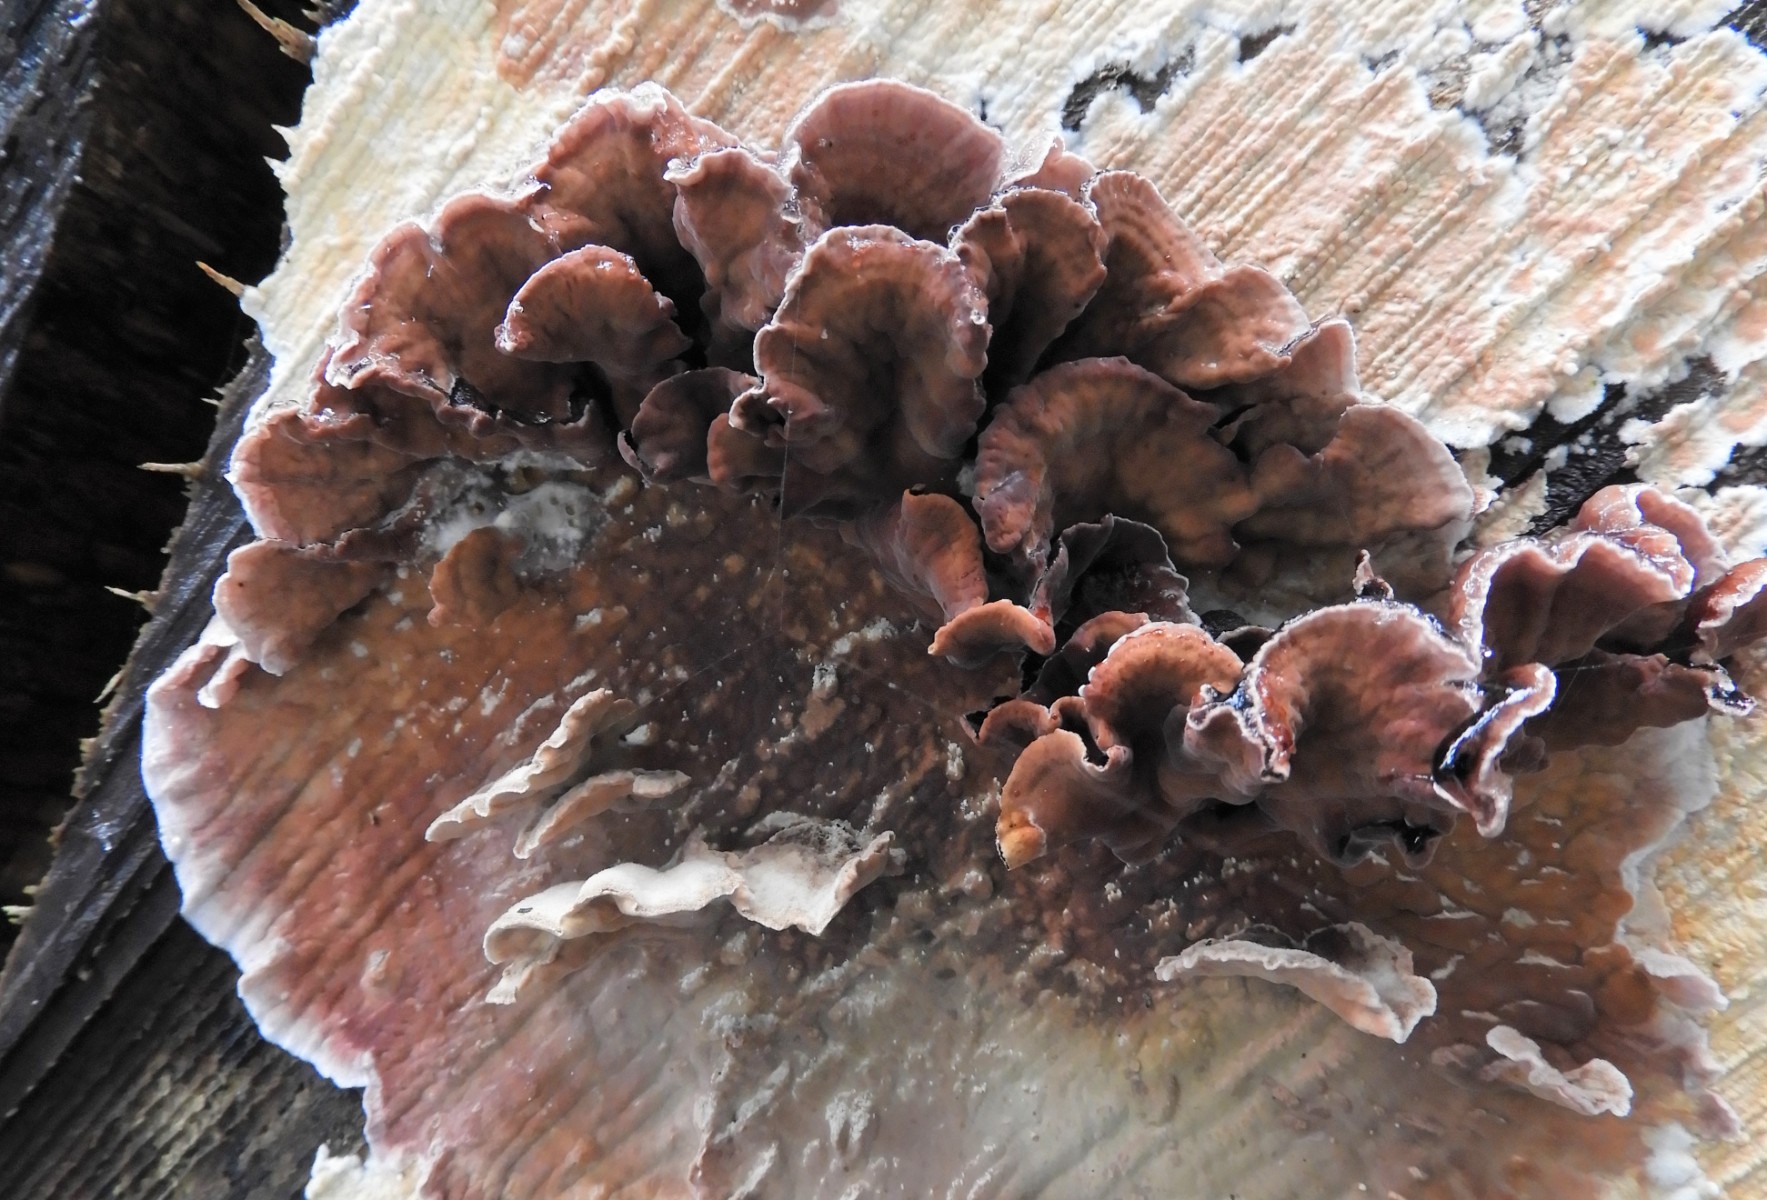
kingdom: Fungi
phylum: Basidiomycota
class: Agaricomycetes
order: Agaricales
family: Cyphellaceae
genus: Chondrostereum
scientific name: Chondrostereum purpureum
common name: purpurlædersvamp
